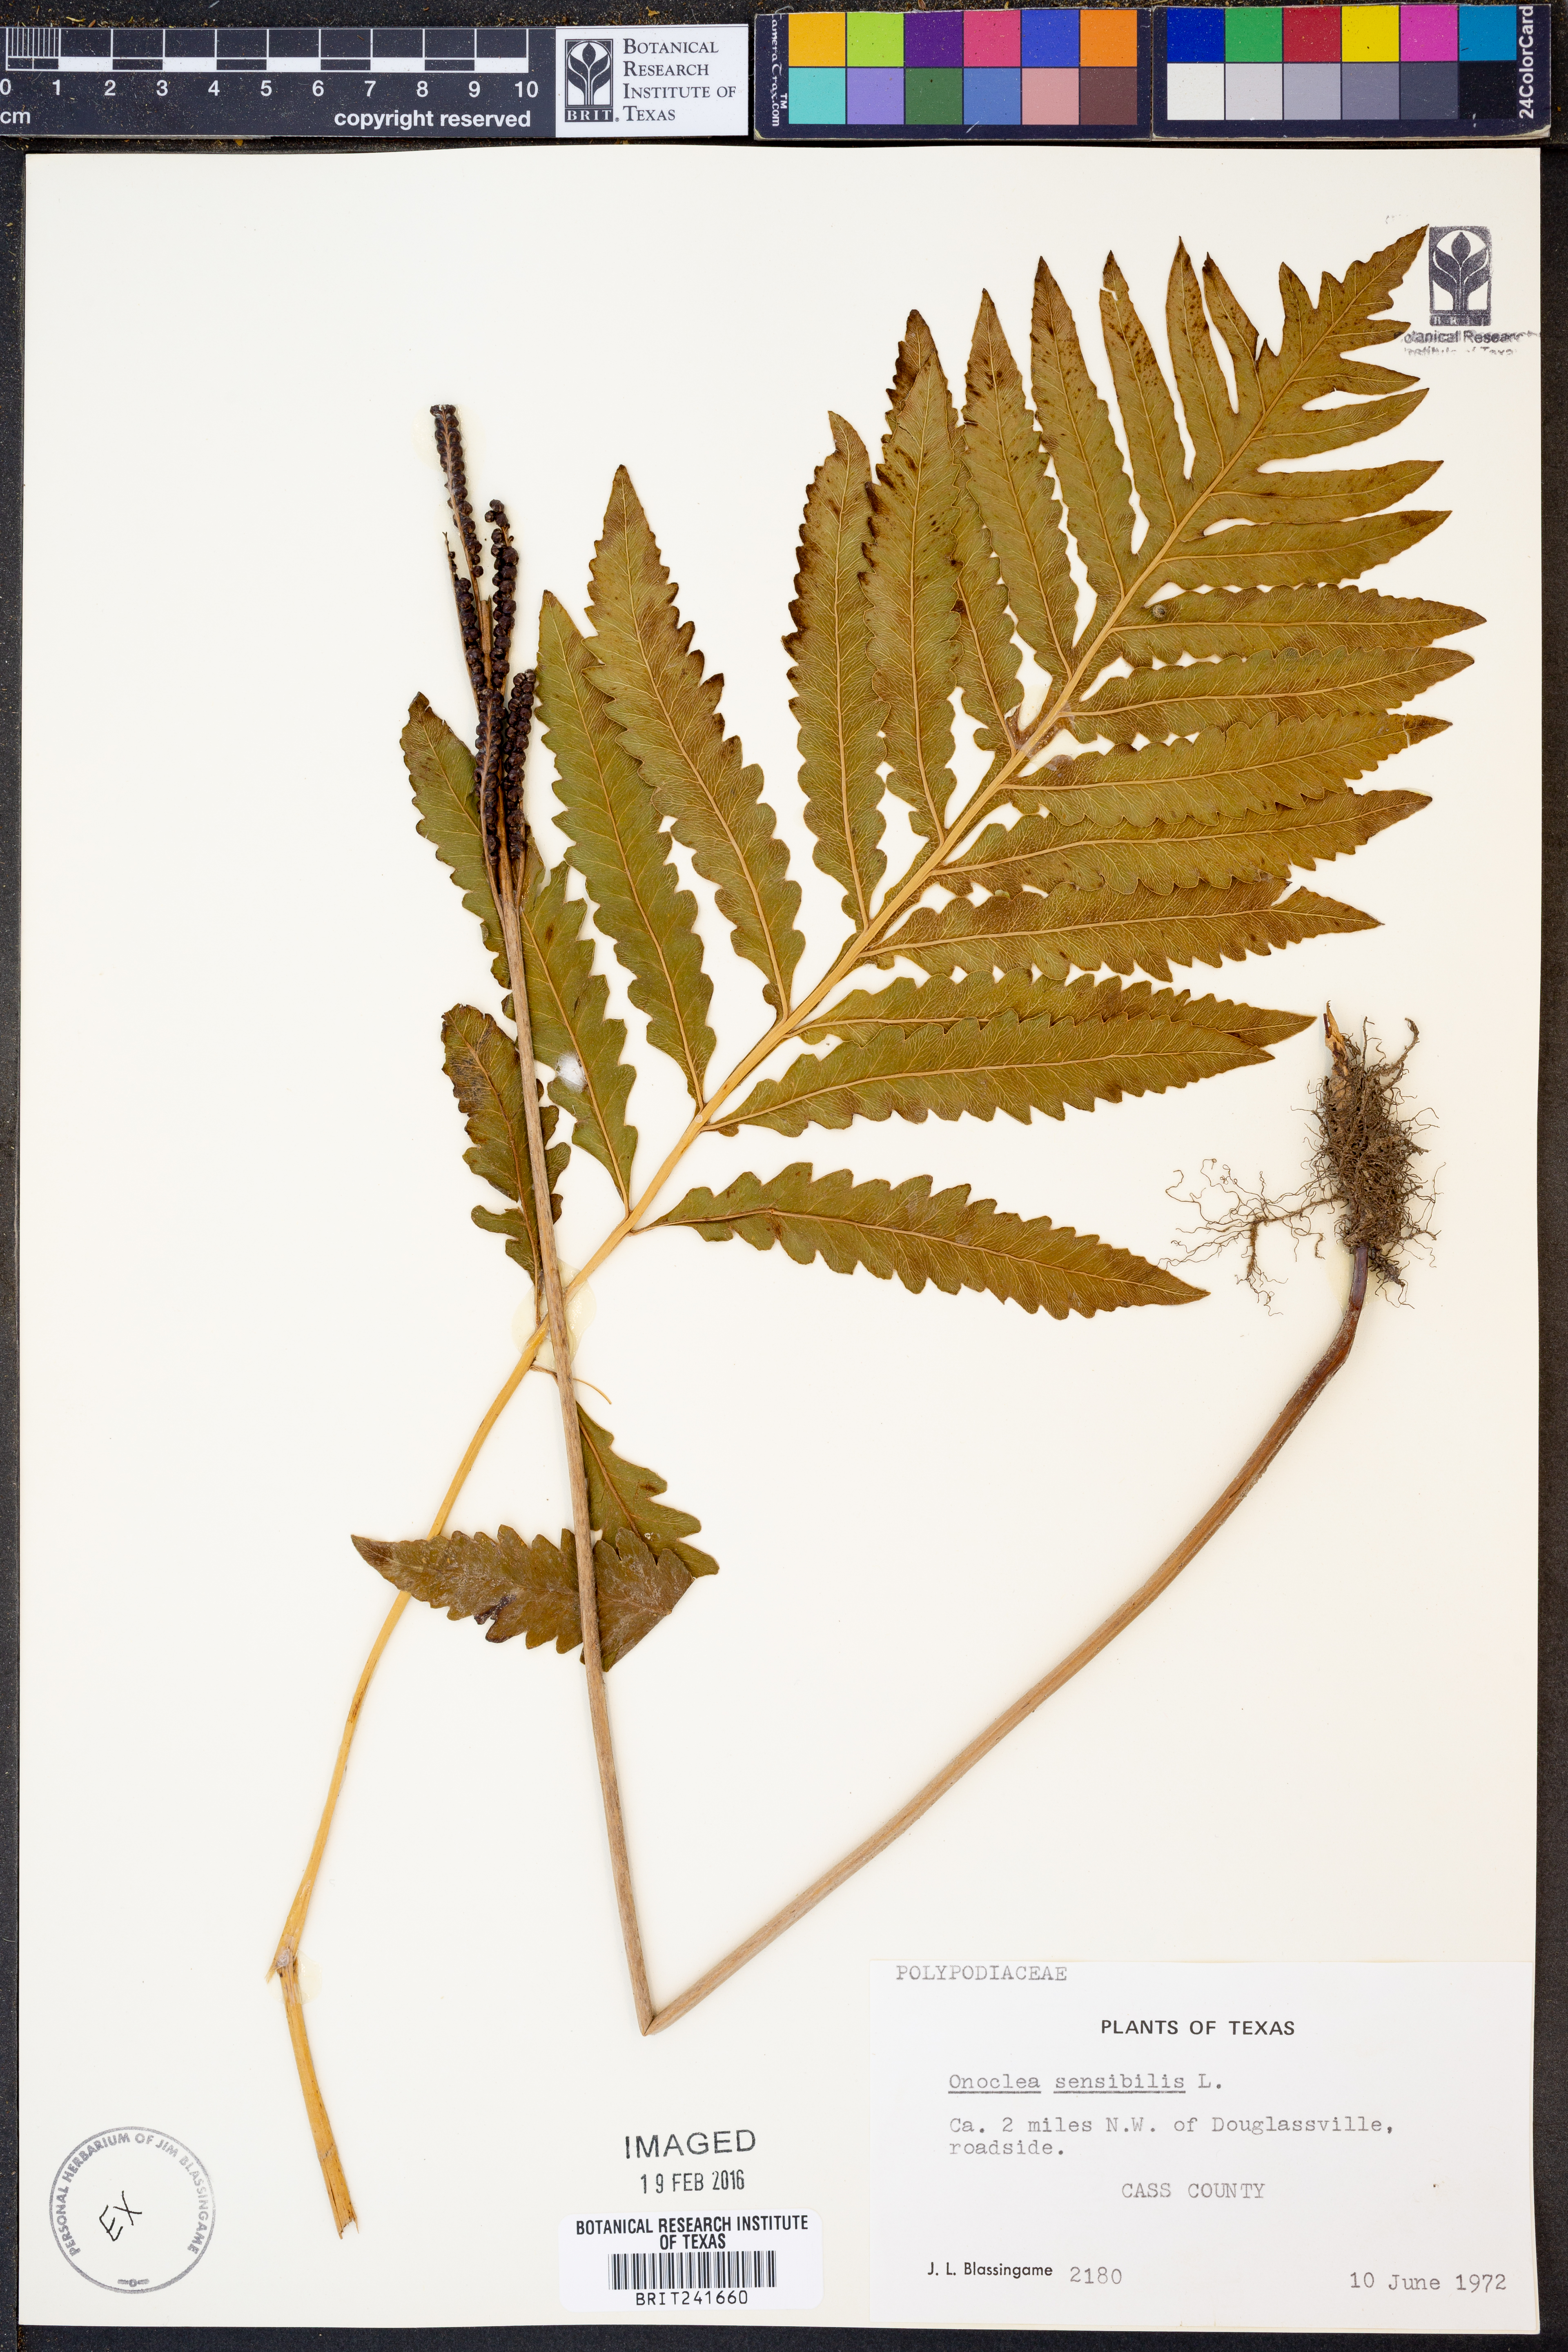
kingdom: Plantae
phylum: Tracheophyta
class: Polypodiopsida
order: Polypodiales
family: Onocleaceae
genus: Onoclea
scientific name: Onoclea sensibilis
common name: Sensitive fern
